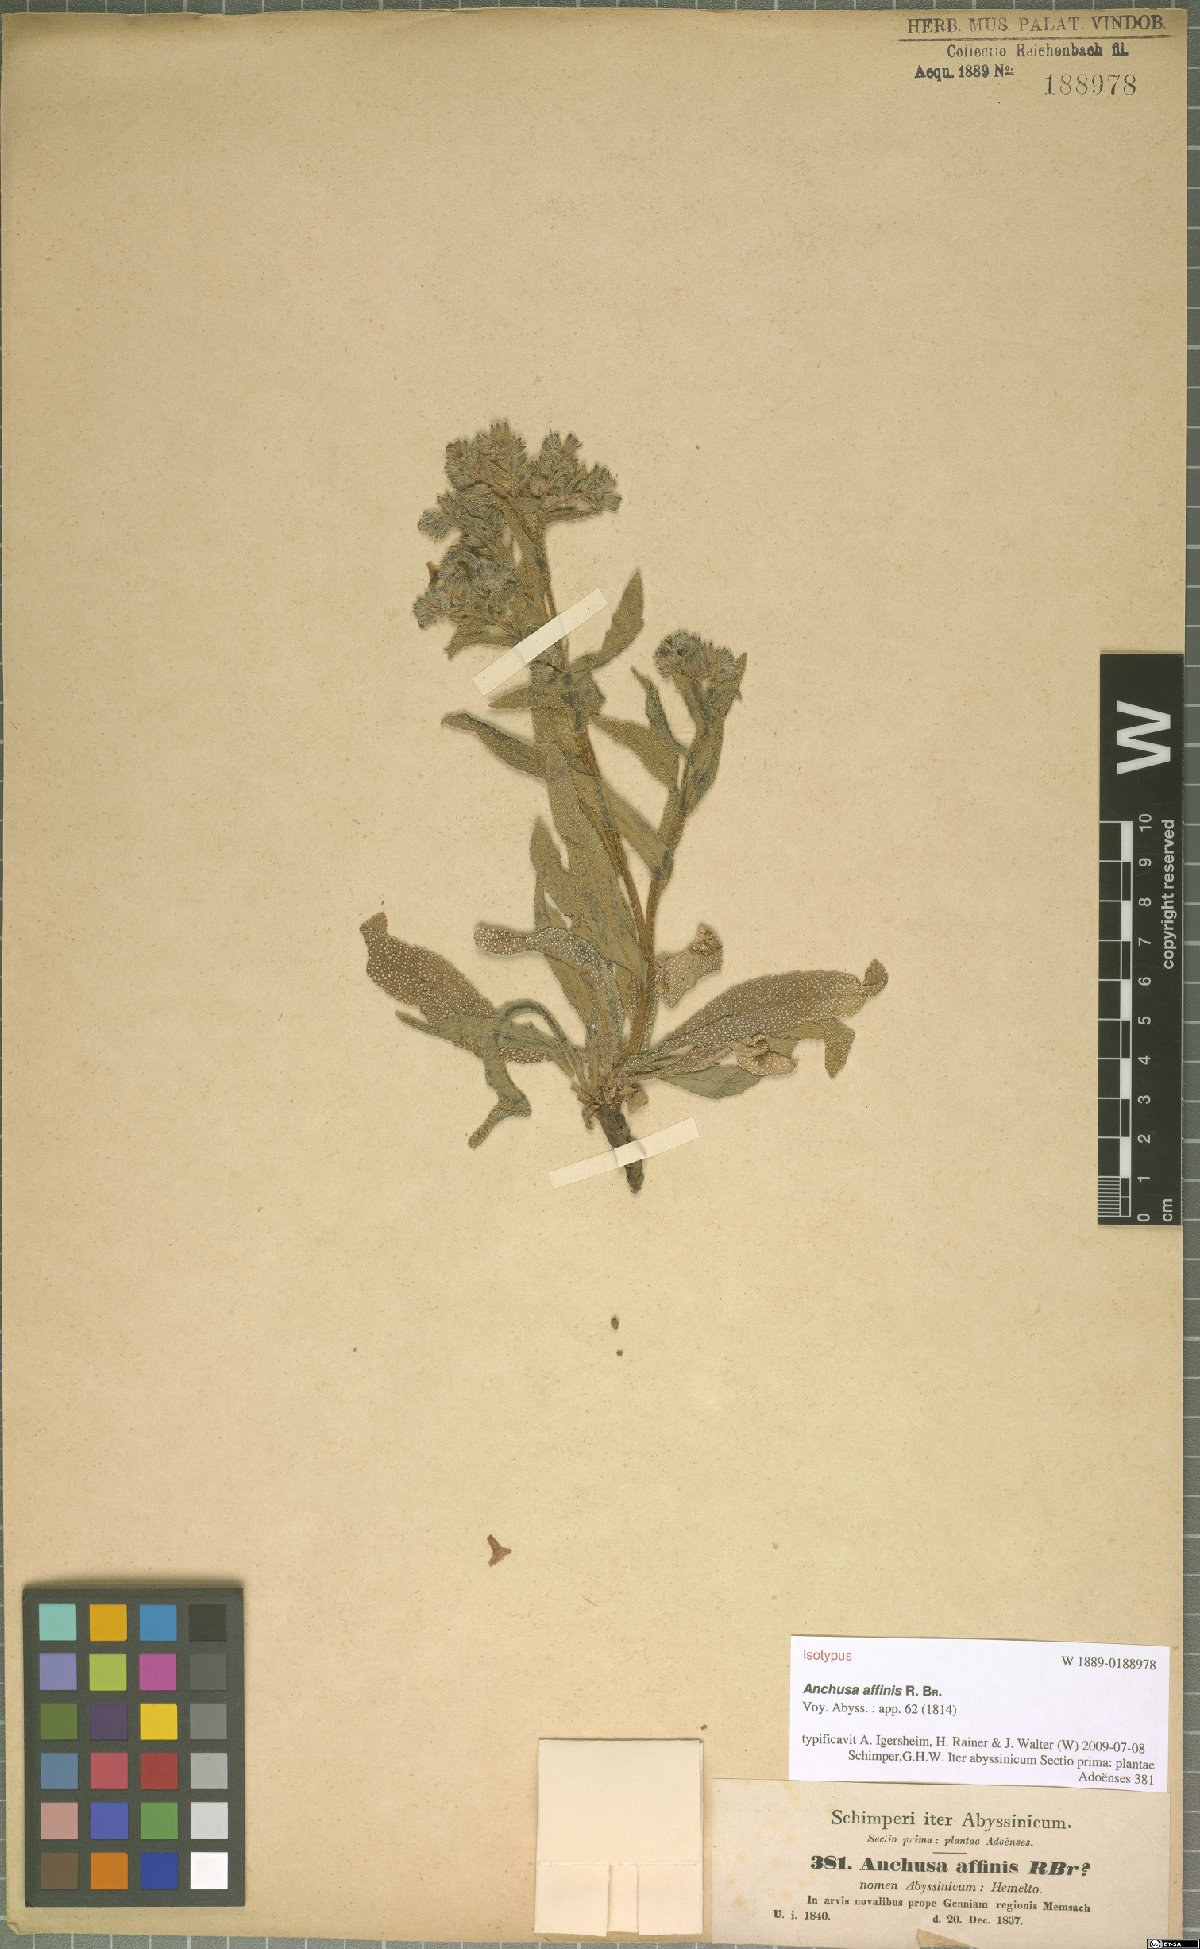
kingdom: Plantae
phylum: Tracheophyta
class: Magnoliopsida
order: Boraginales
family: Boraginaceae
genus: Anchusa
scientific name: Anchusa affinis
